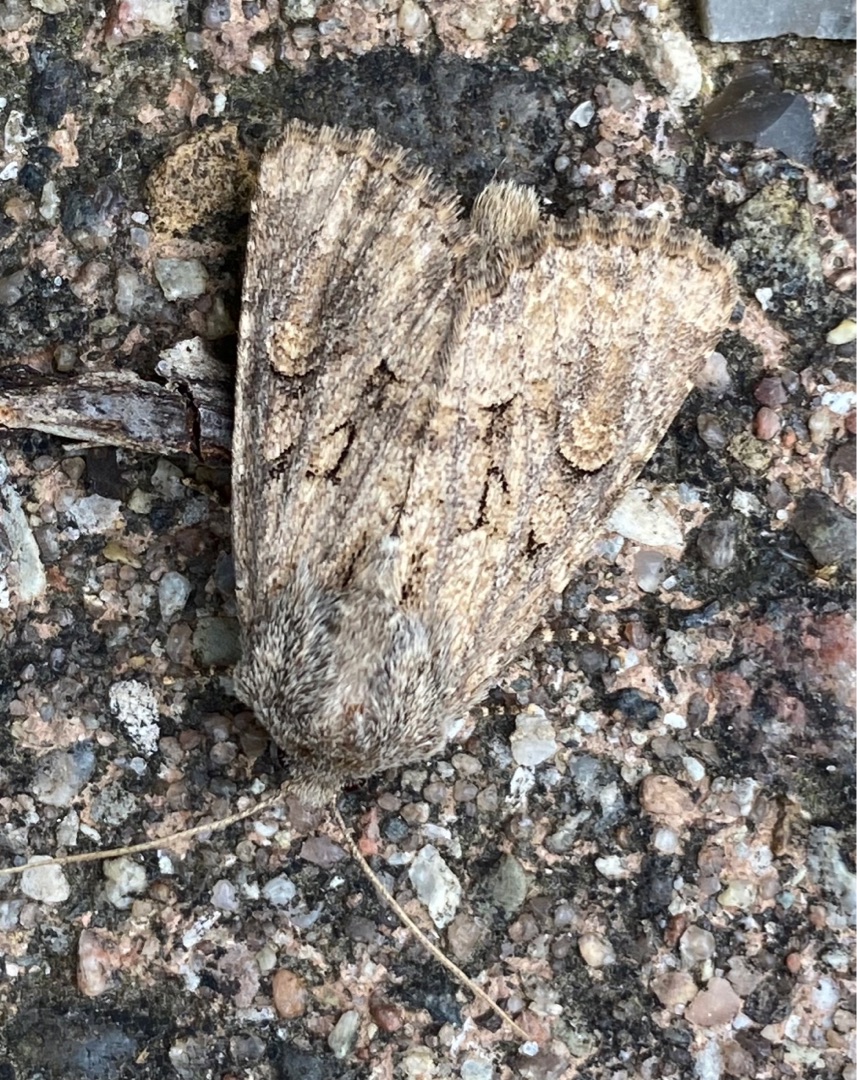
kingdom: Animalia
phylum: Arthropoda
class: Insecta
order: Lepidoptera
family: Noctuidae
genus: Luperina
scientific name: Luperina testacea
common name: Frøgræsugle
